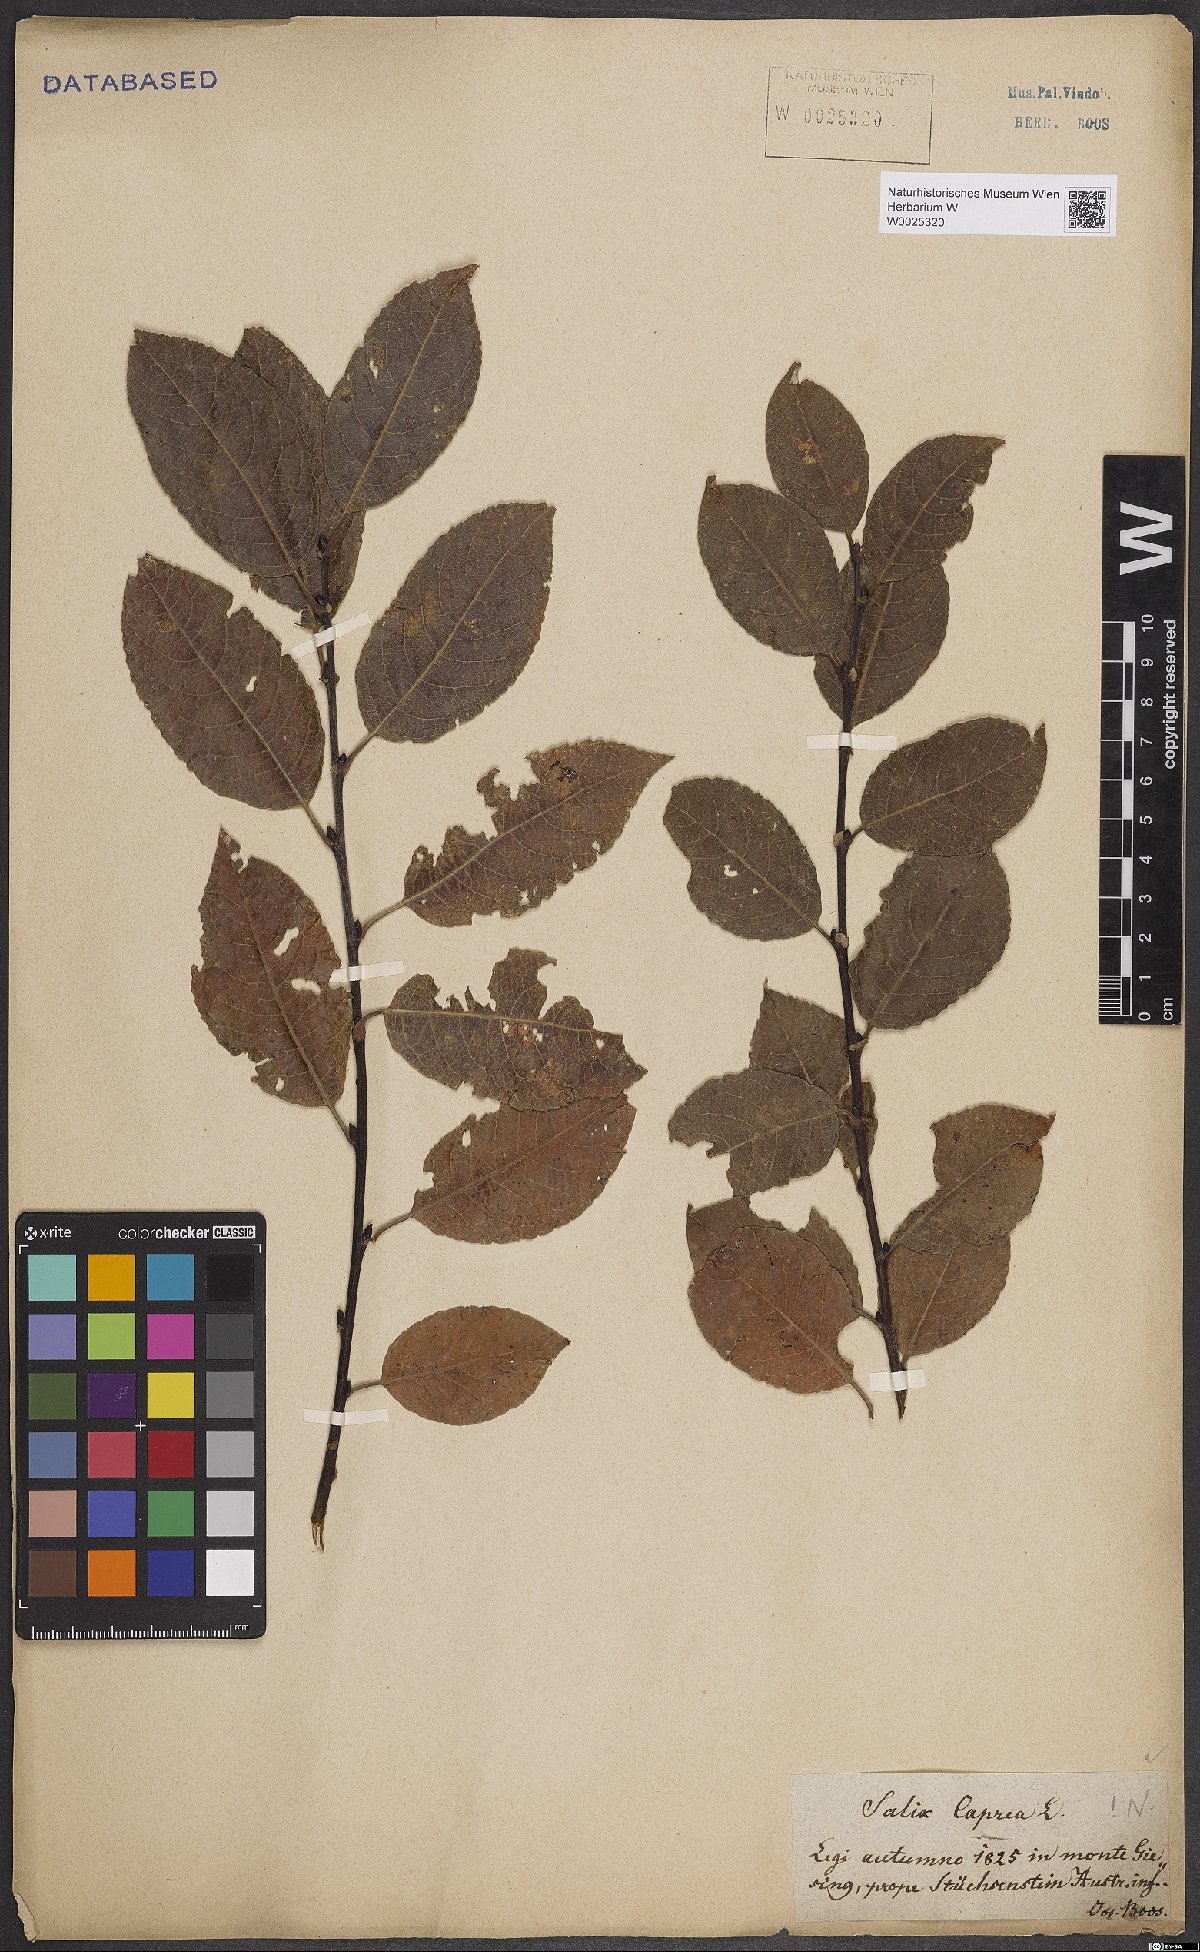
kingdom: Plantae
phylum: Tracheophyta
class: Magnoliopsida
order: Malpighiales
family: Salicaceae
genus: Salix
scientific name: Salix caprea
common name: Goat willow
